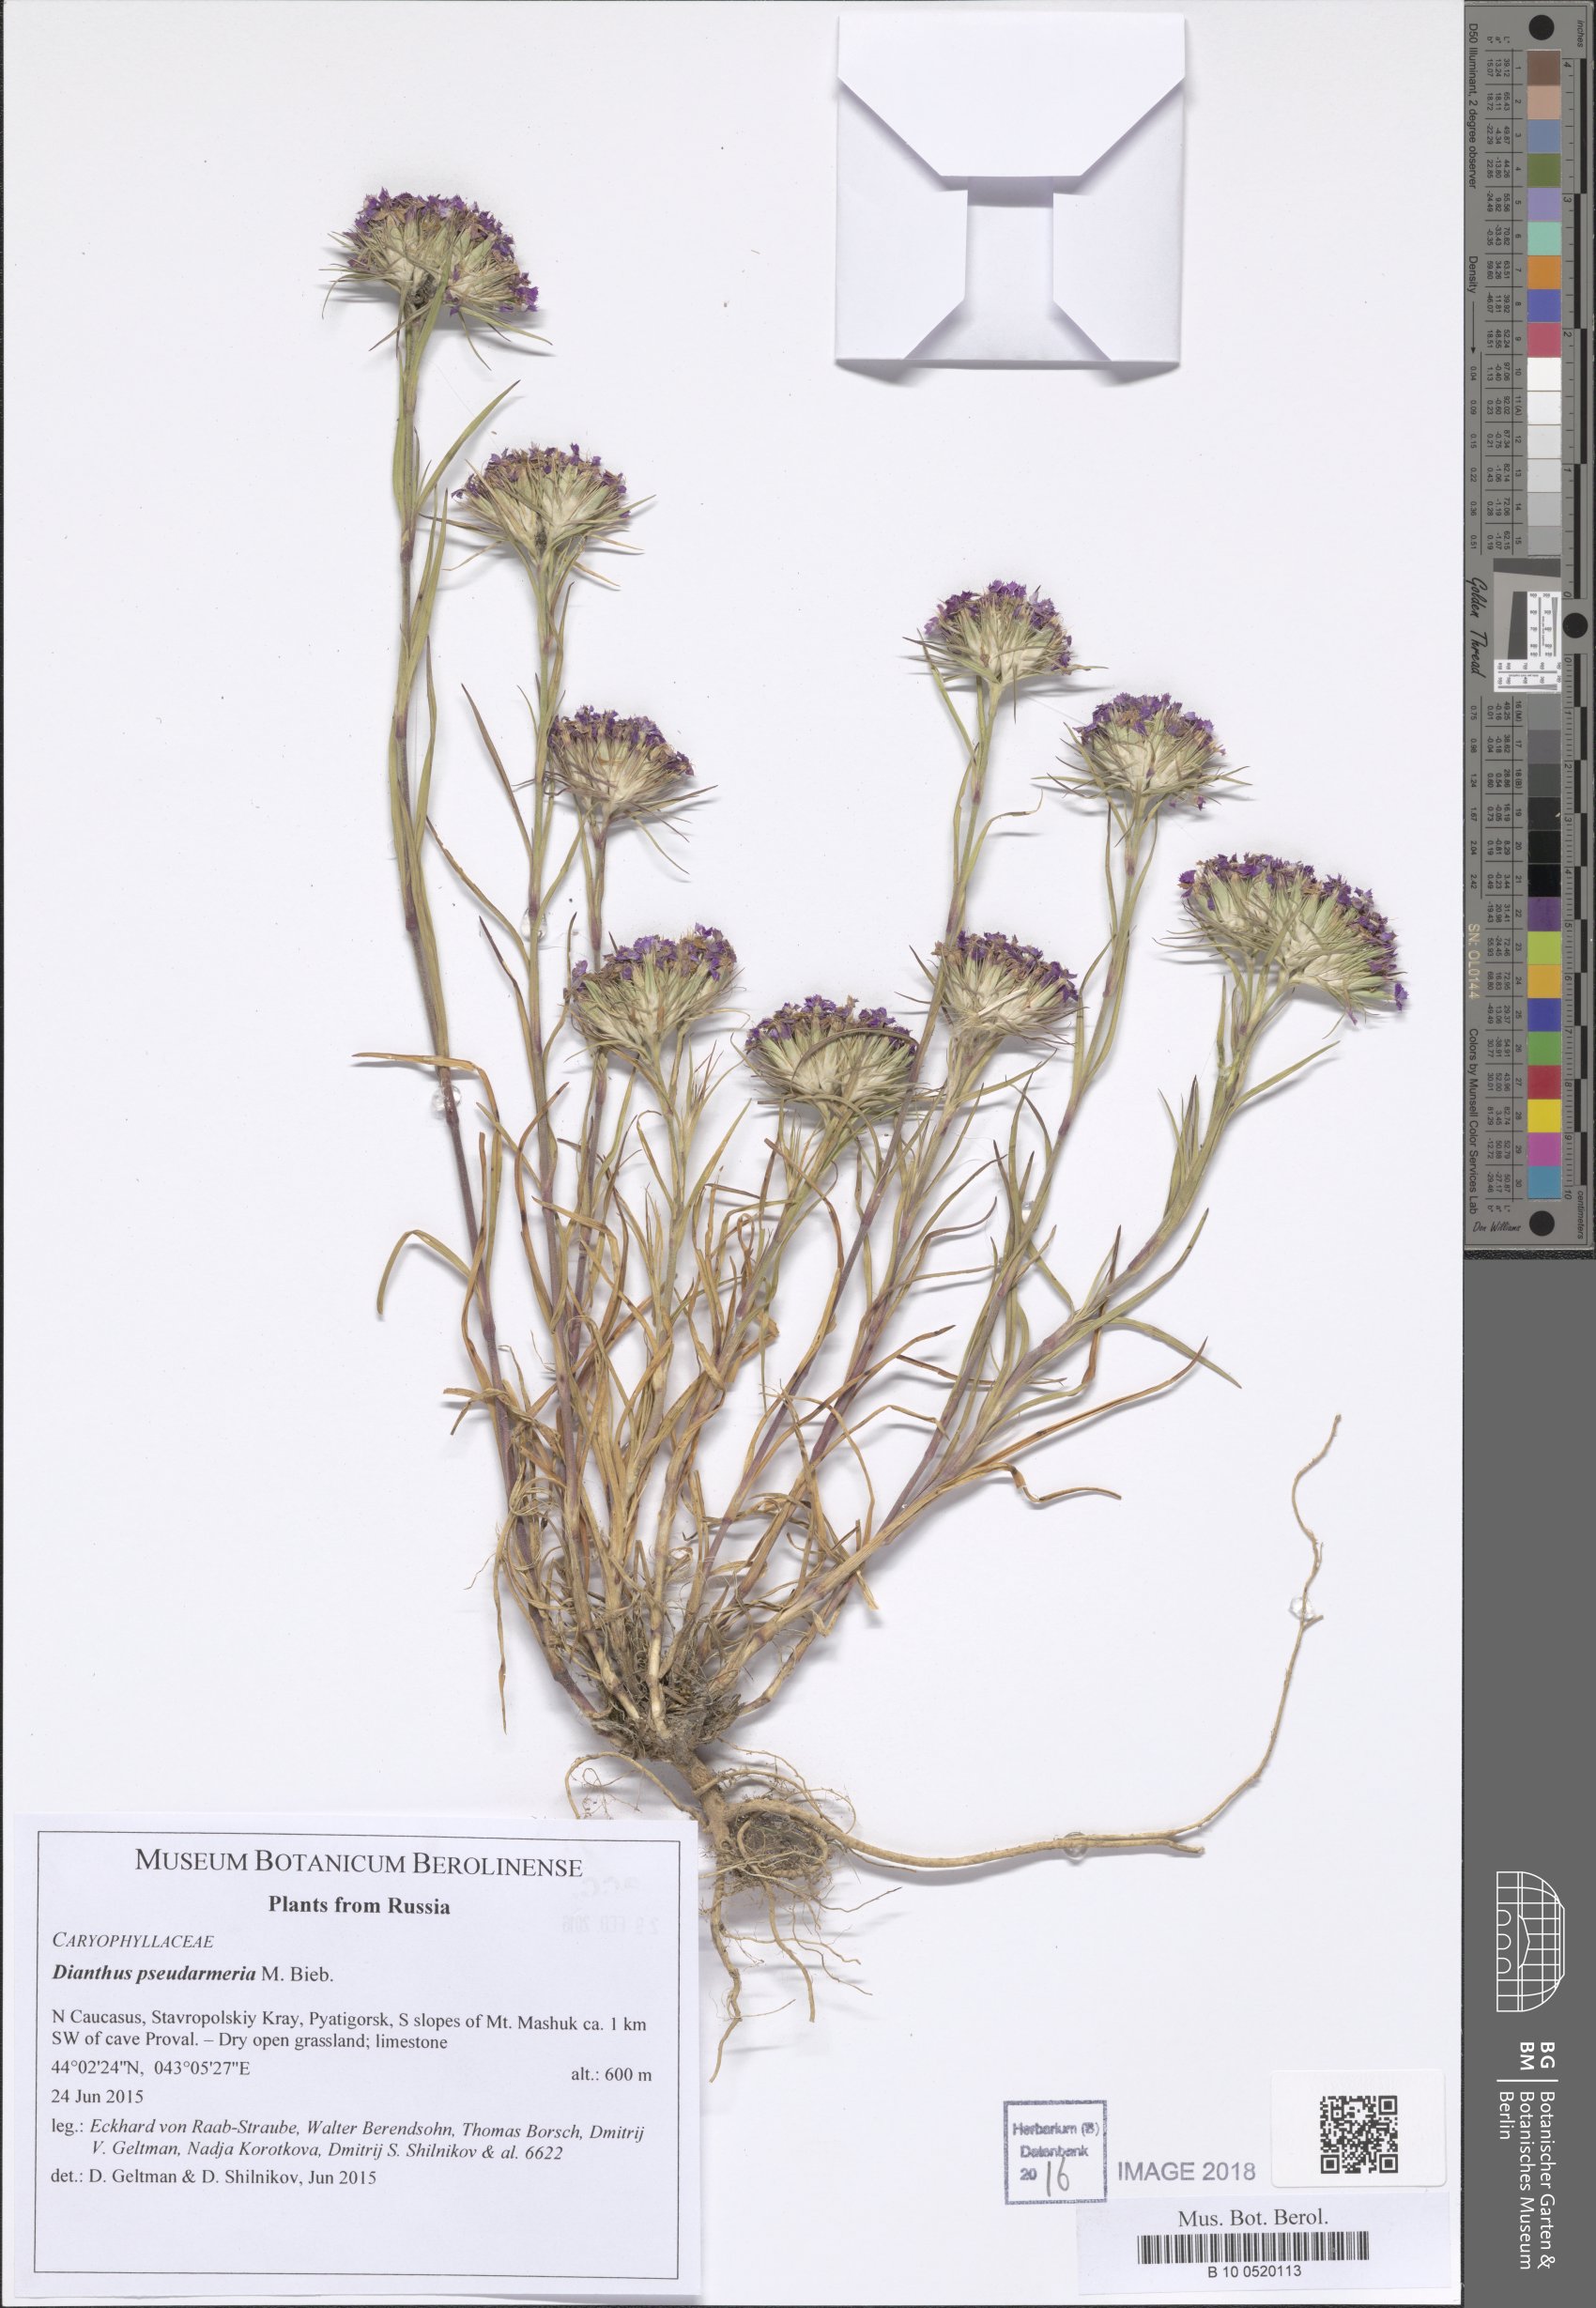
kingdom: Plantae
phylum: Tracheophyta
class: Magnoliopsida
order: Caryophyllales
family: Caryophyllaceae
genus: Dianthus
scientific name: Dianthus pseudarmeria
